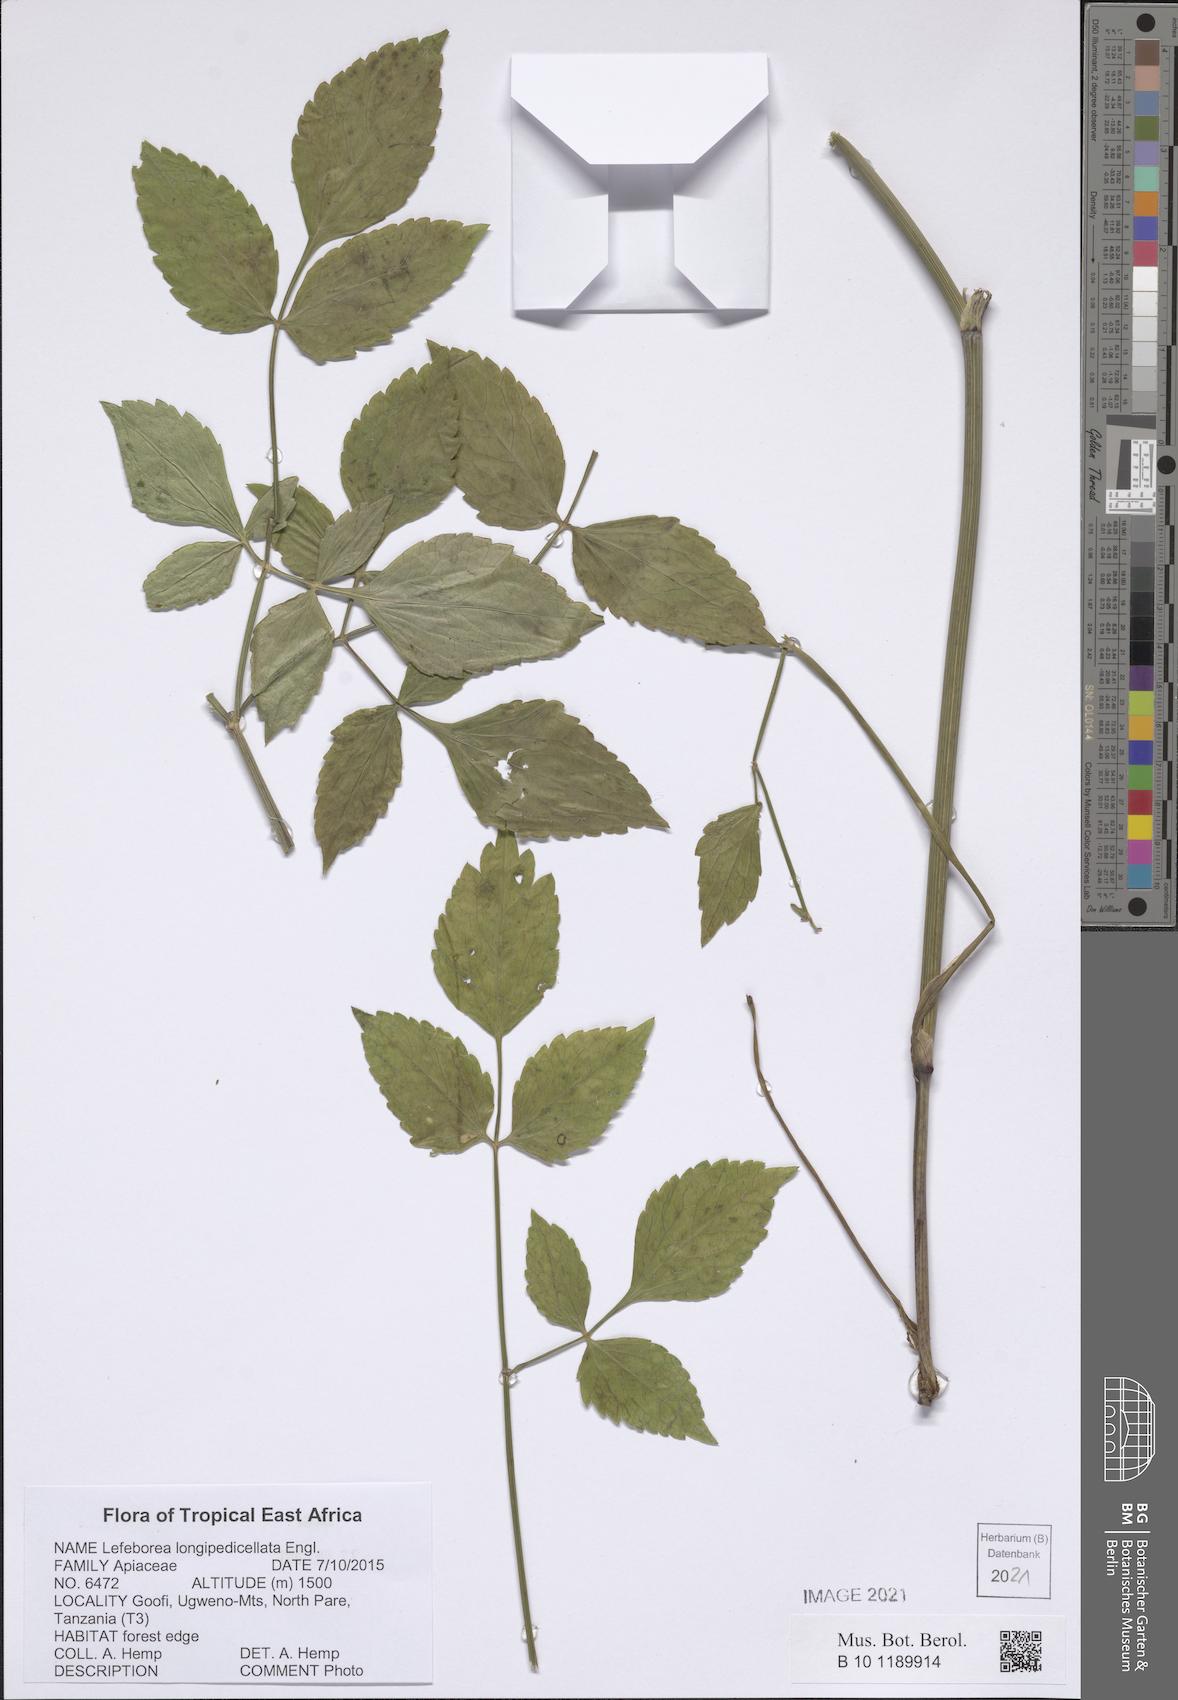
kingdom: Plantae
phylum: Tracheophyta
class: Magnoliopsida
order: Apiales
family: Apiaceae
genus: Lefebvrea
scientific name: Lefebvrea longipedicellata
